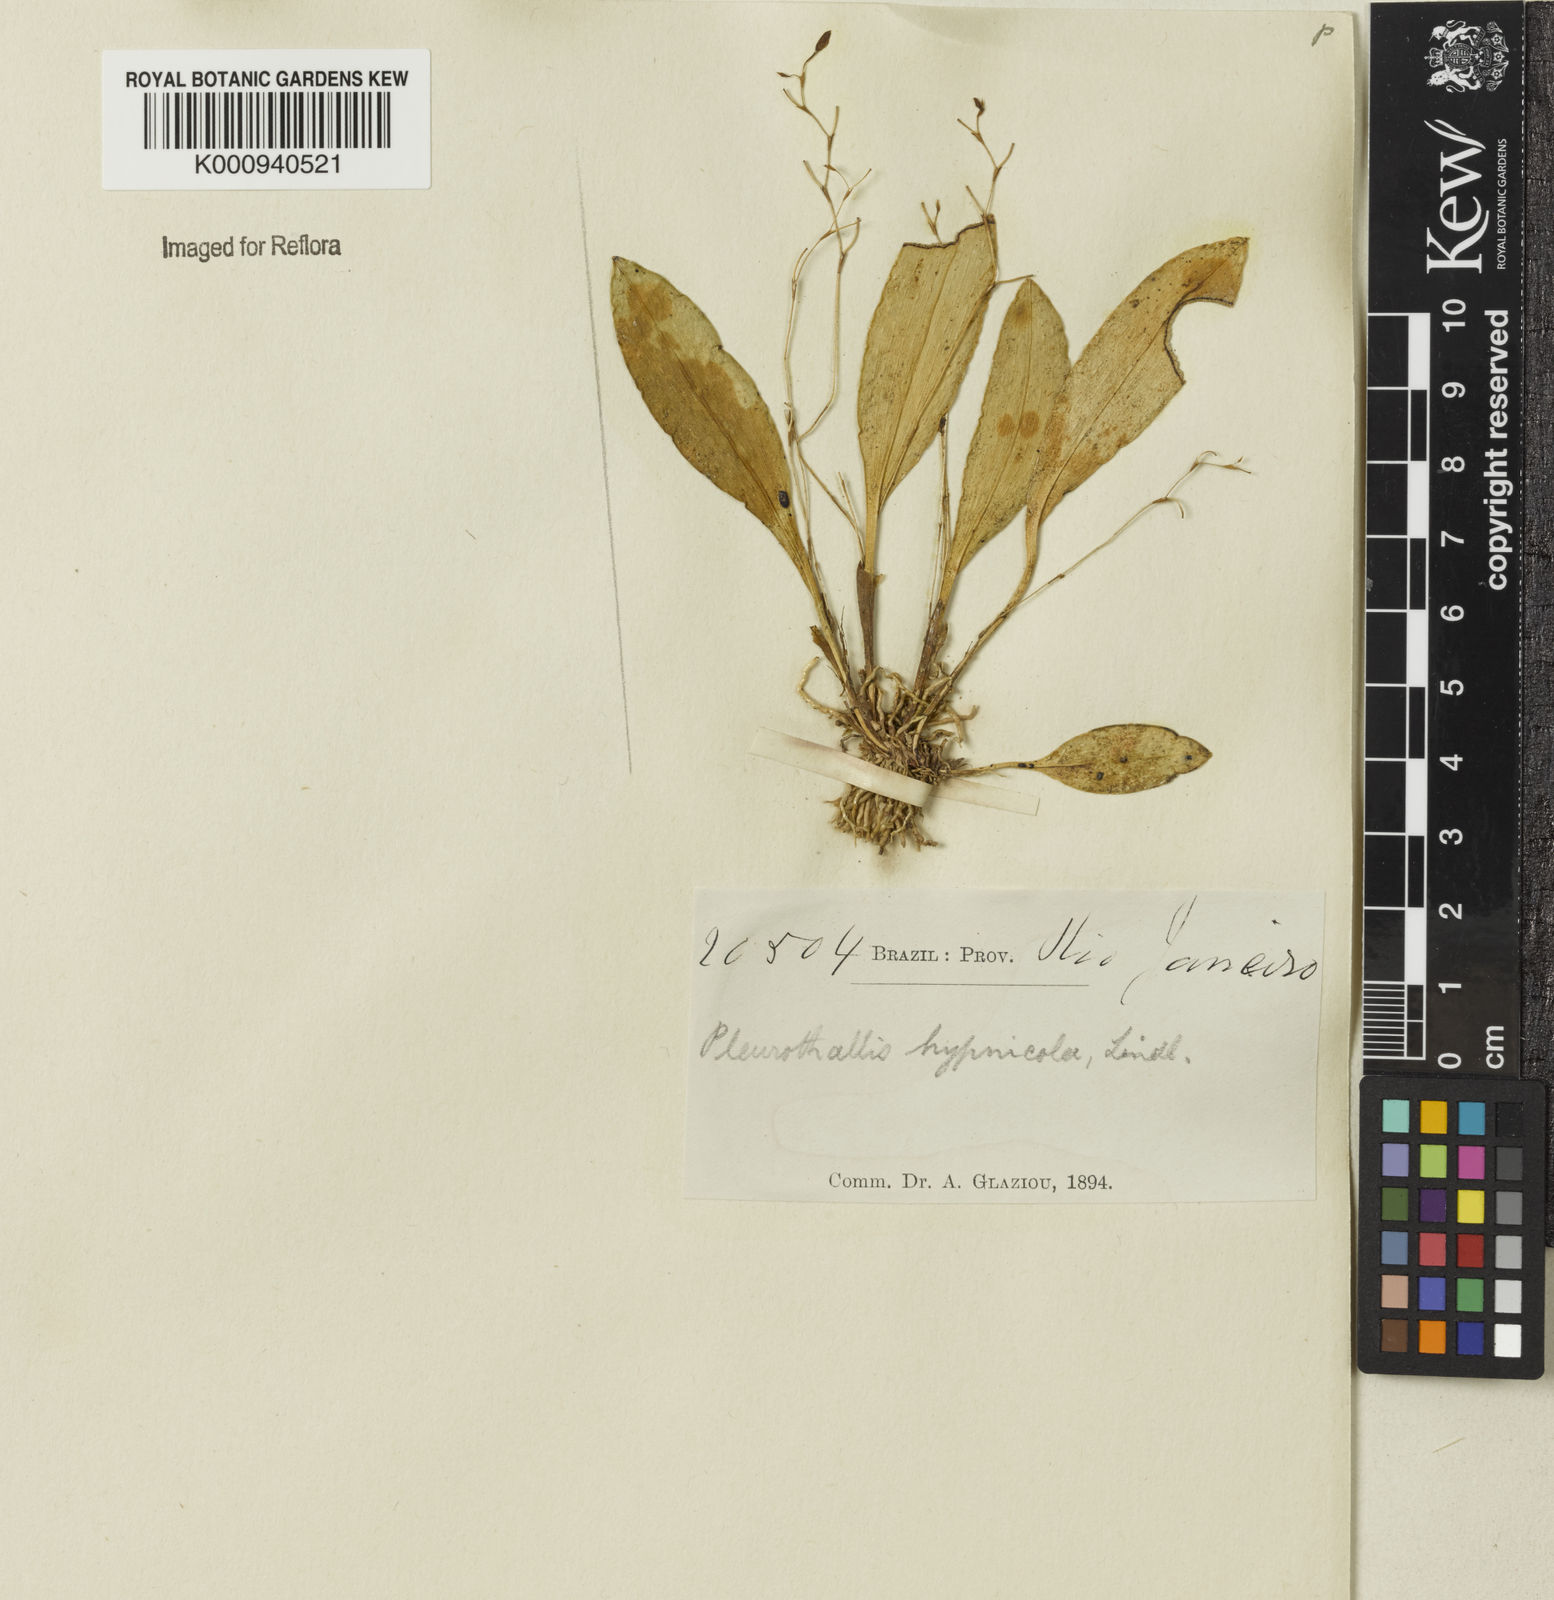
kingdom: Plantae
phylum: Tracheophyta
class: Liliopsida
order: Asparagales
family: Orchidaceae
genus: Pabstiella
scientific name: Pabstiella fusca
